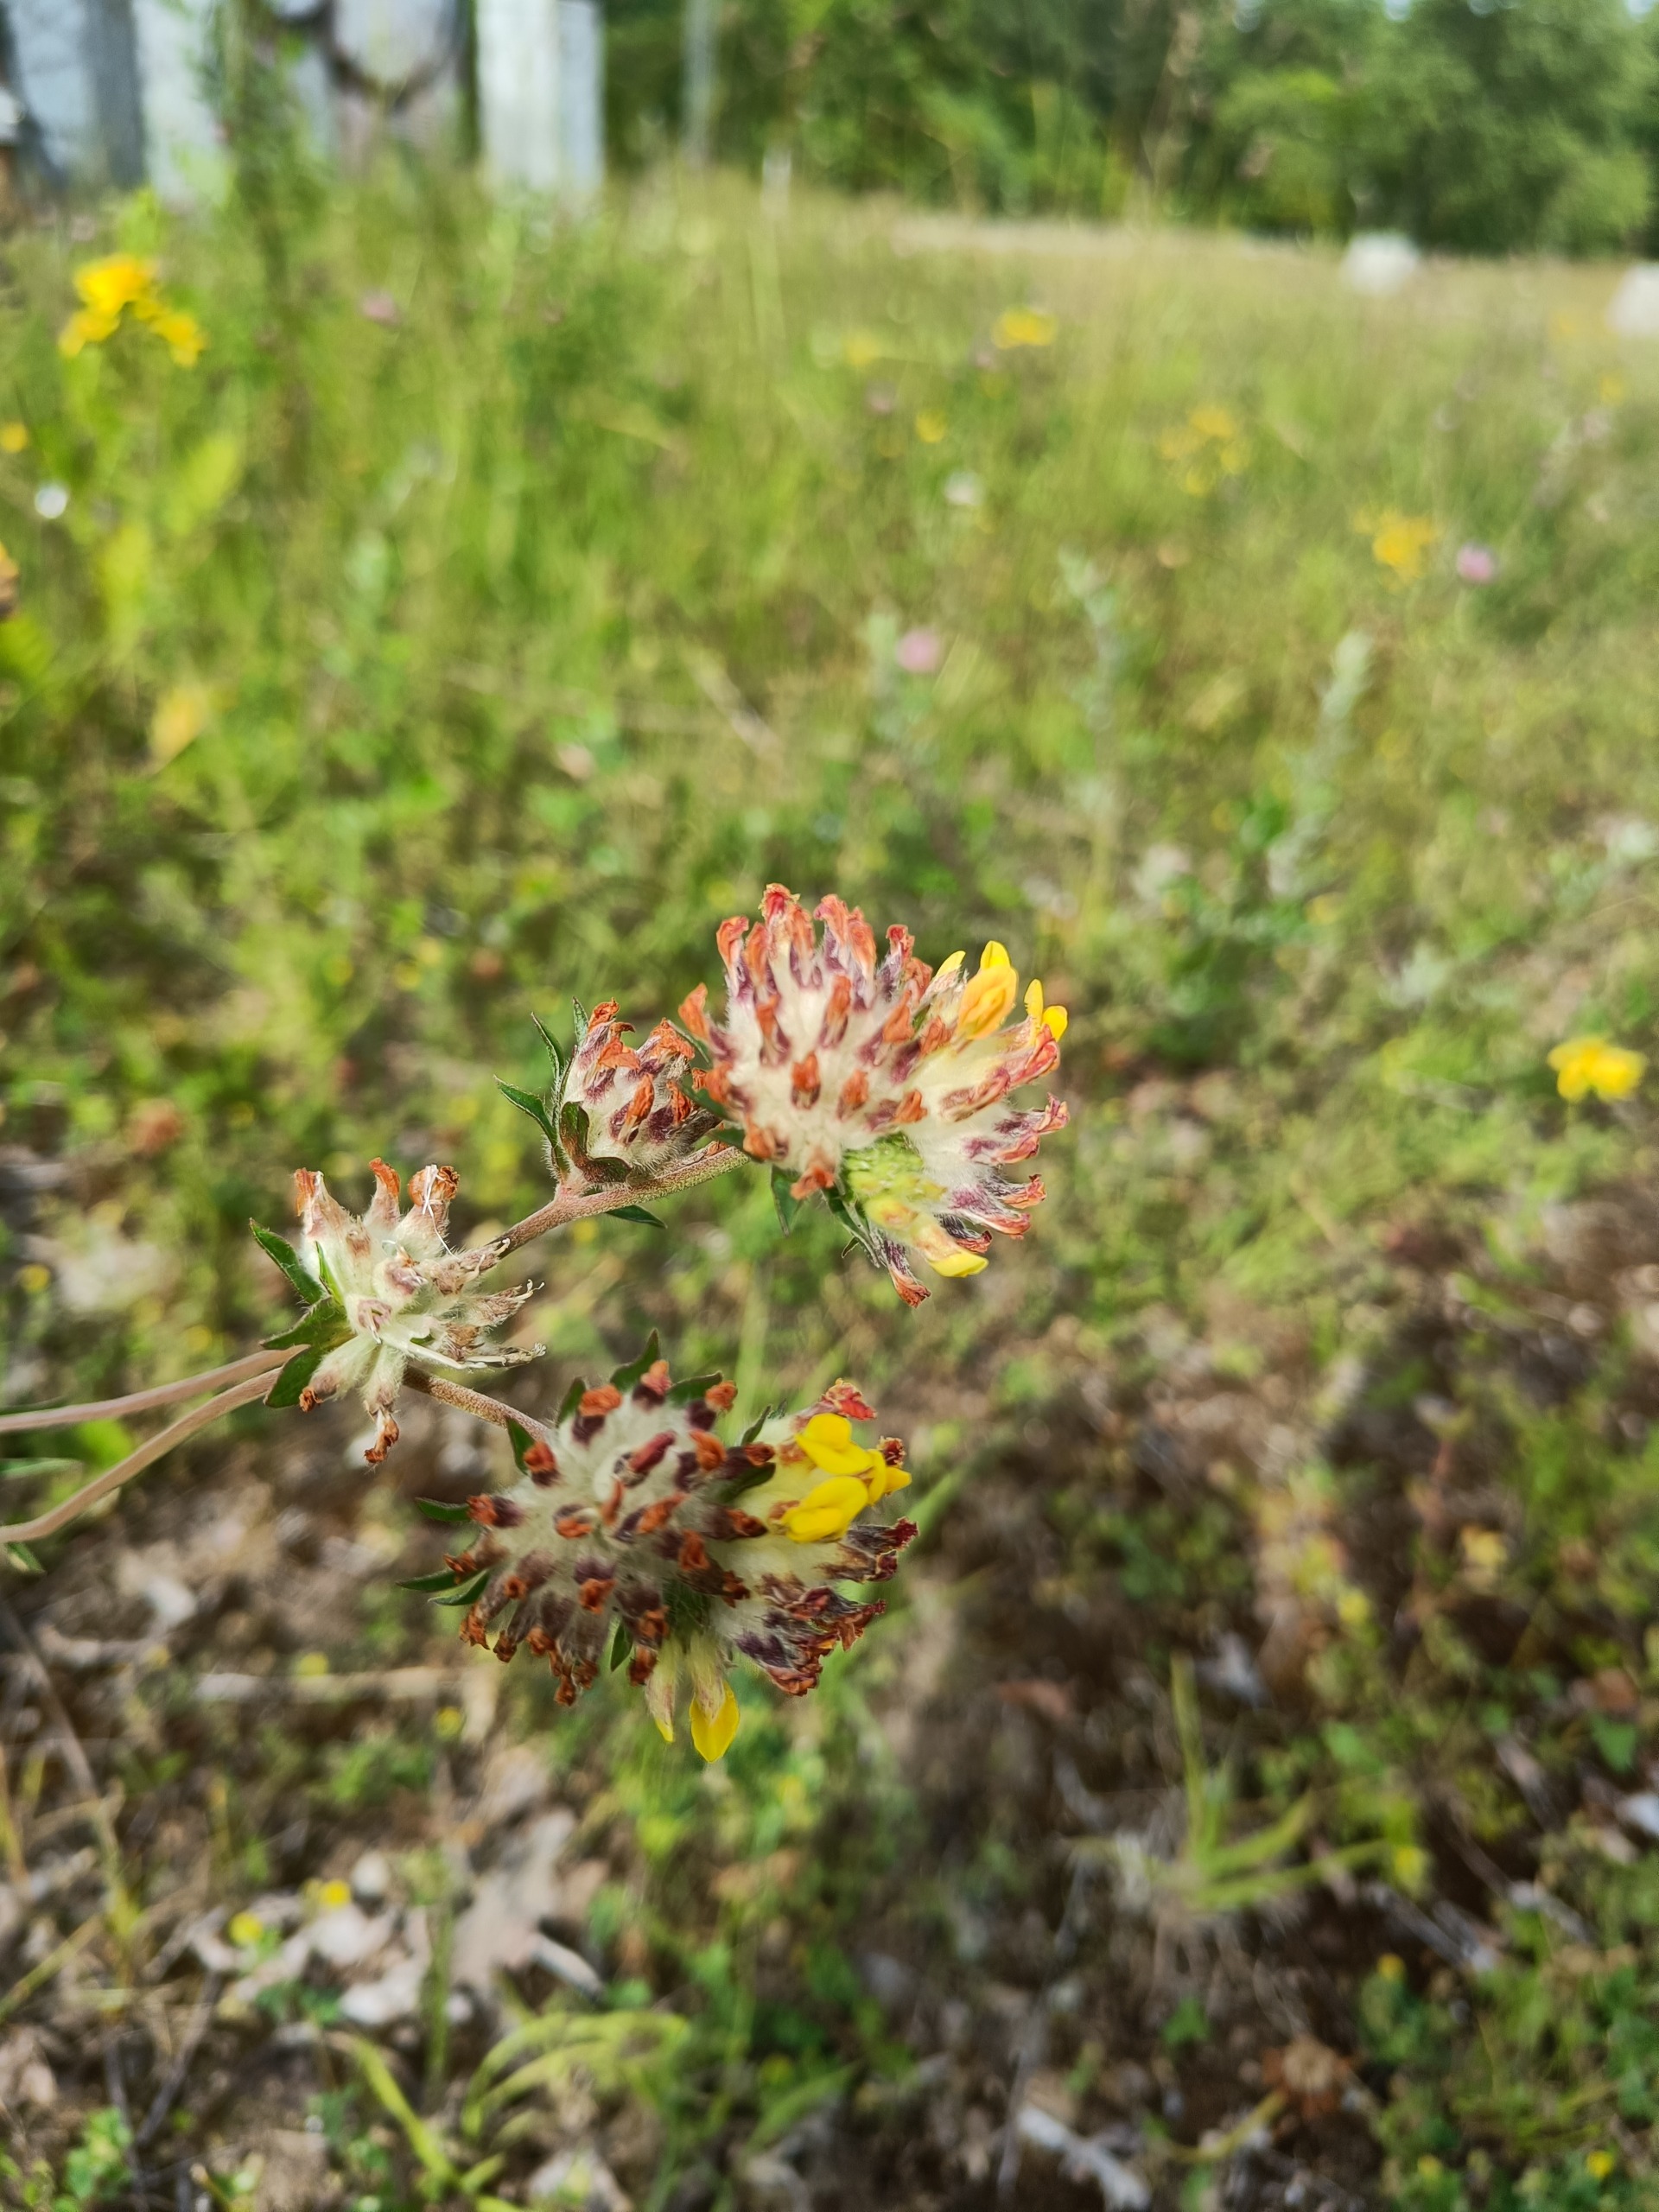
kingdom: Plantae
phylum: Tracheophyta
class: Magnoliopsida
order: Fabales
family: Fabaceae
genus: Anthyllis
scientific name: Anthyllis vulneraria
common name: Rundbælg
